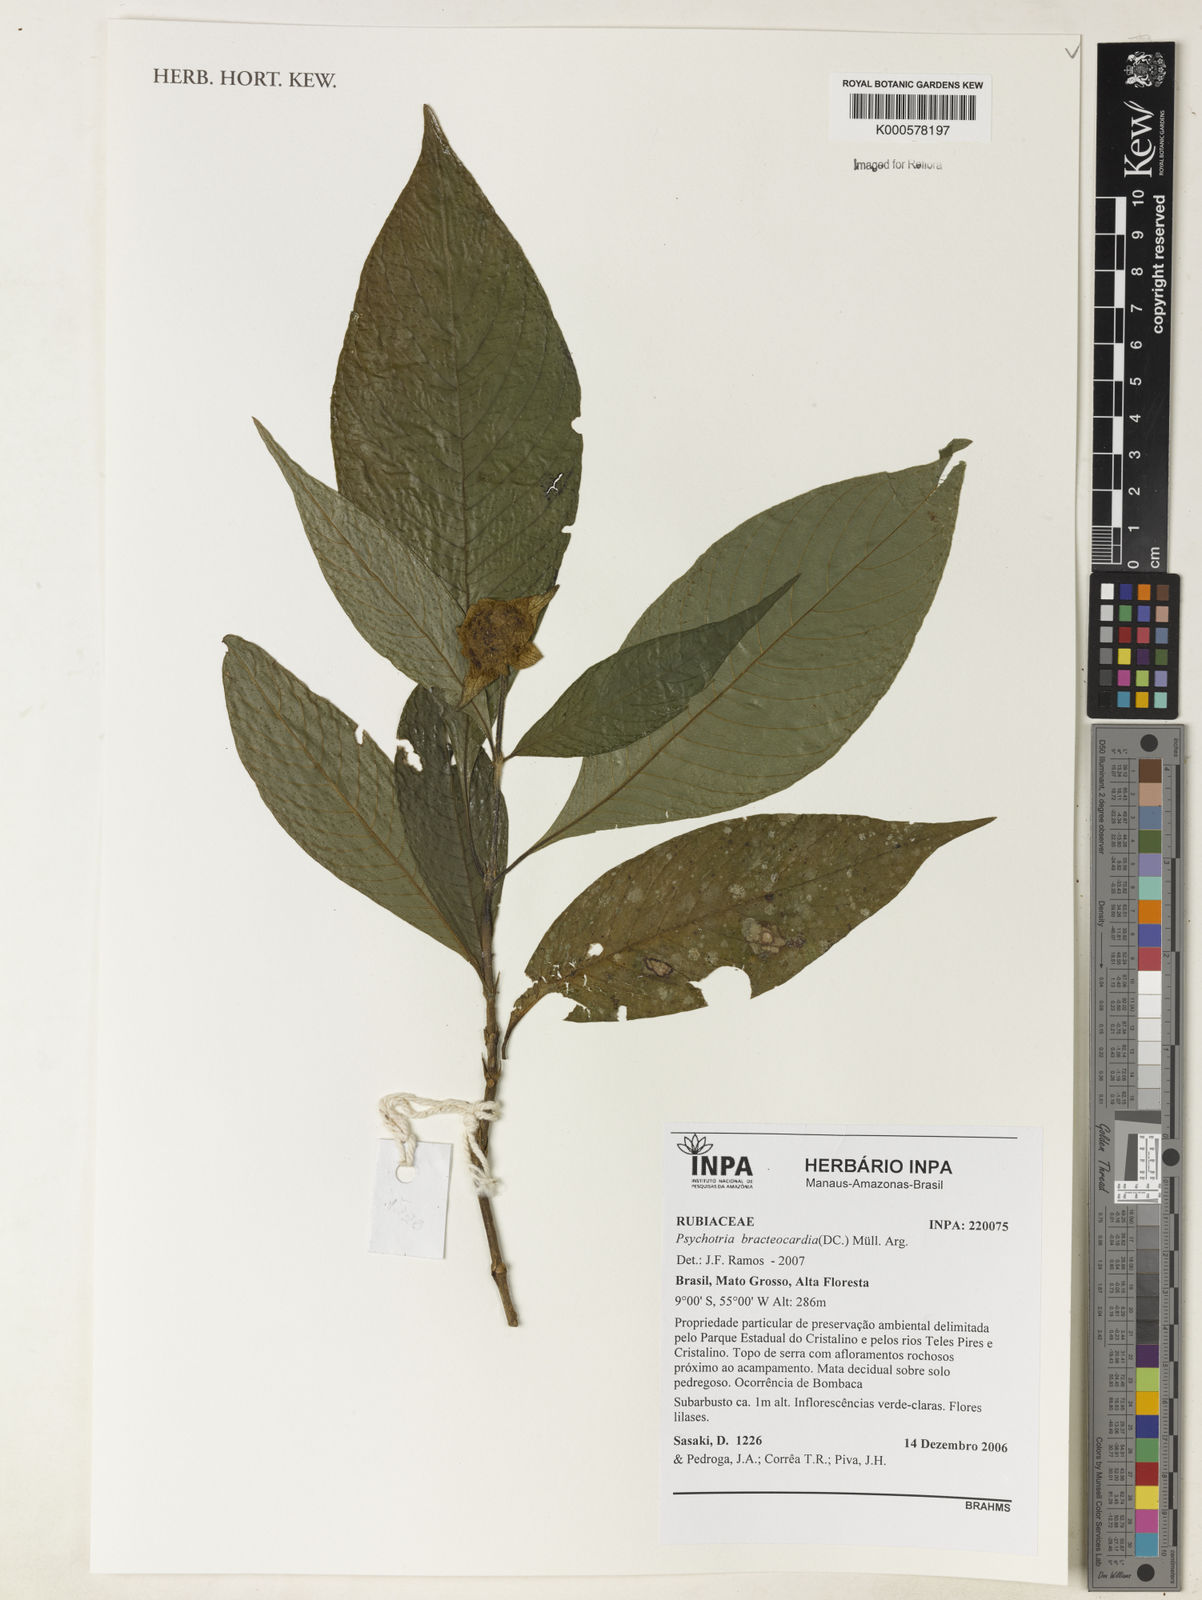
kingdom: Plantae
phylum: Tracheophyta
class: Magnoliopsida
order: Gentianales
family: Rubiaceae
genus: Psychotria
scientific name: Psychotria
